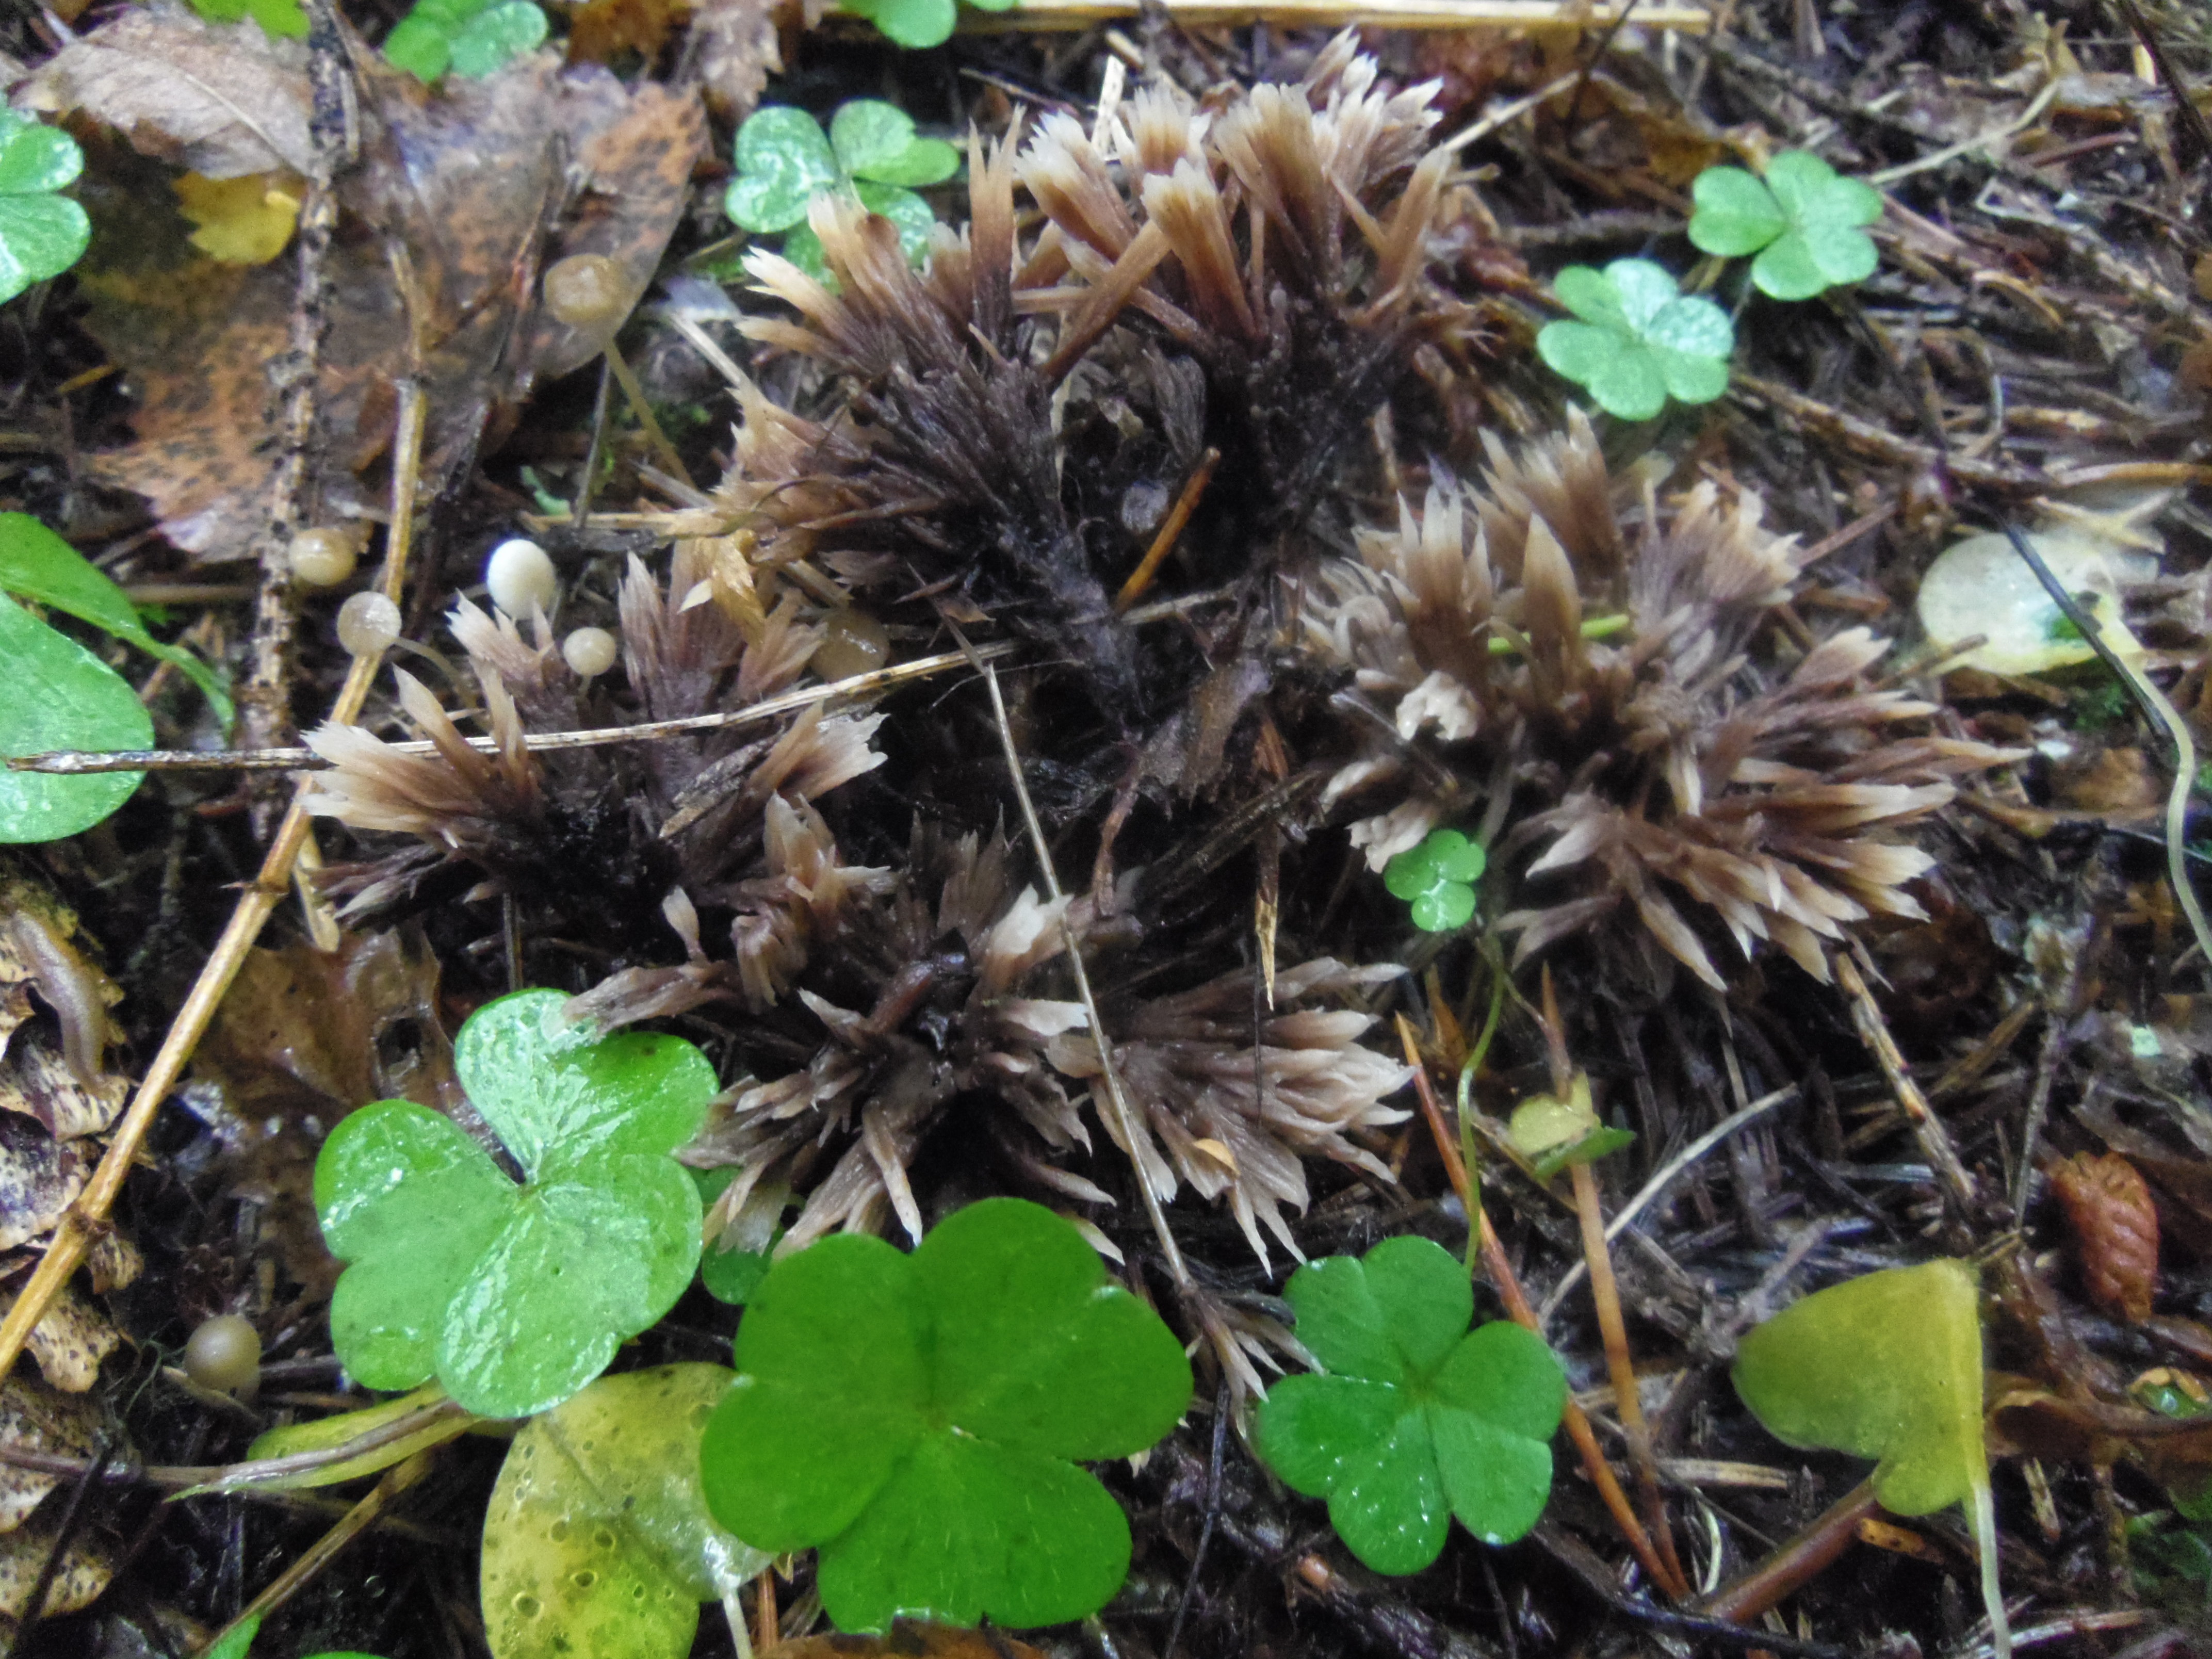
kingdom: Fungi
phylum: Basidiomycota
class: Agaricomycetes
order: Thelephorales
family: Thelephoraceae
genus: Thelephora
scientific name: Thelephora penicillata
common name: Urchin earthfan
